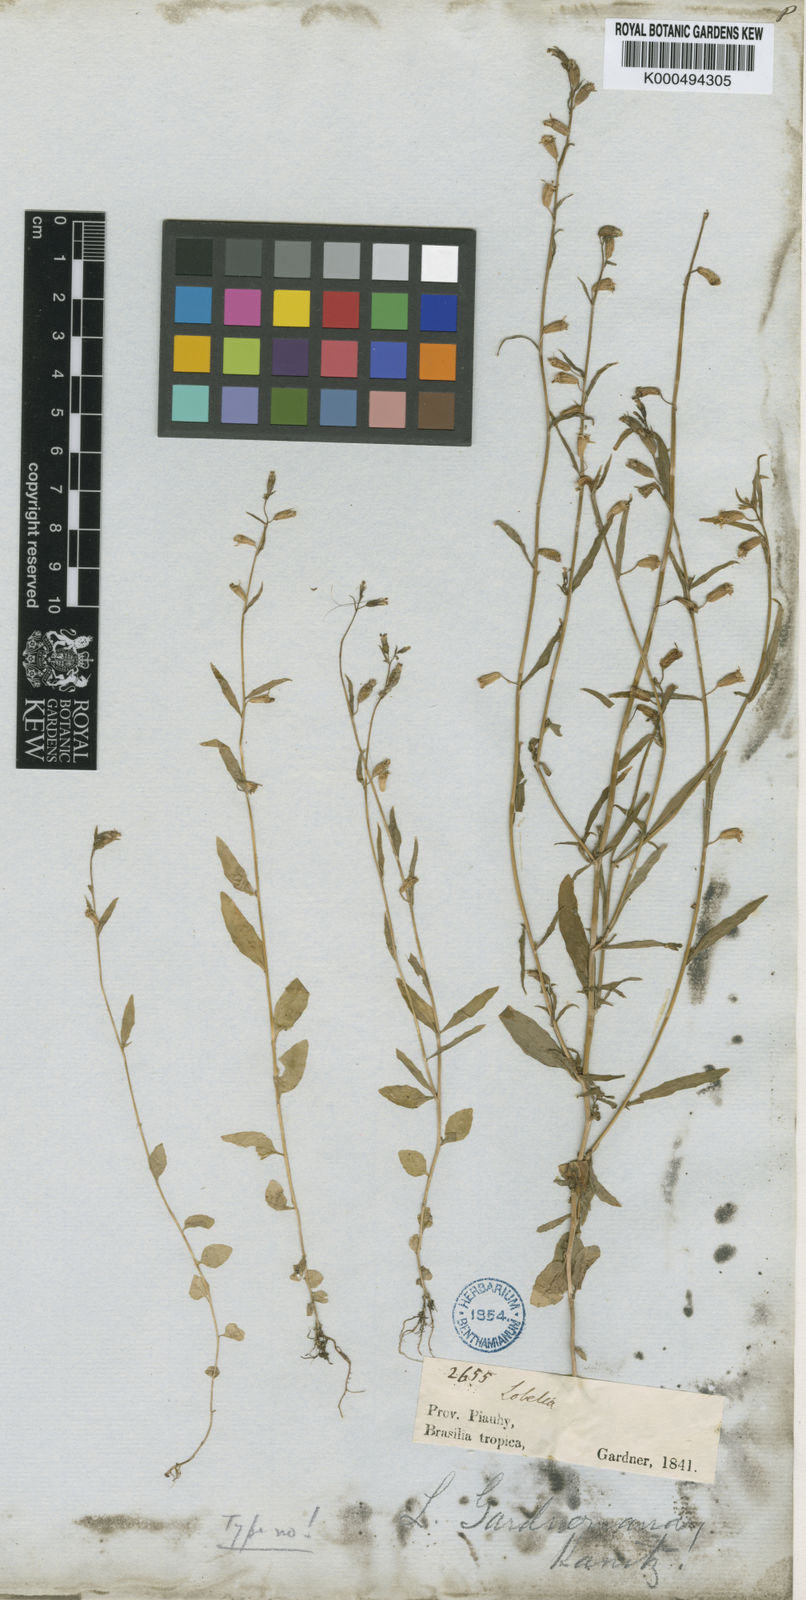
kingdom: Plantae
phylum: Tracheophyta
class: Magnoliopsida
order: Asterales
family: Campanulaceae
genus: Lobelia
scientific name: Lobelia fastigiata
